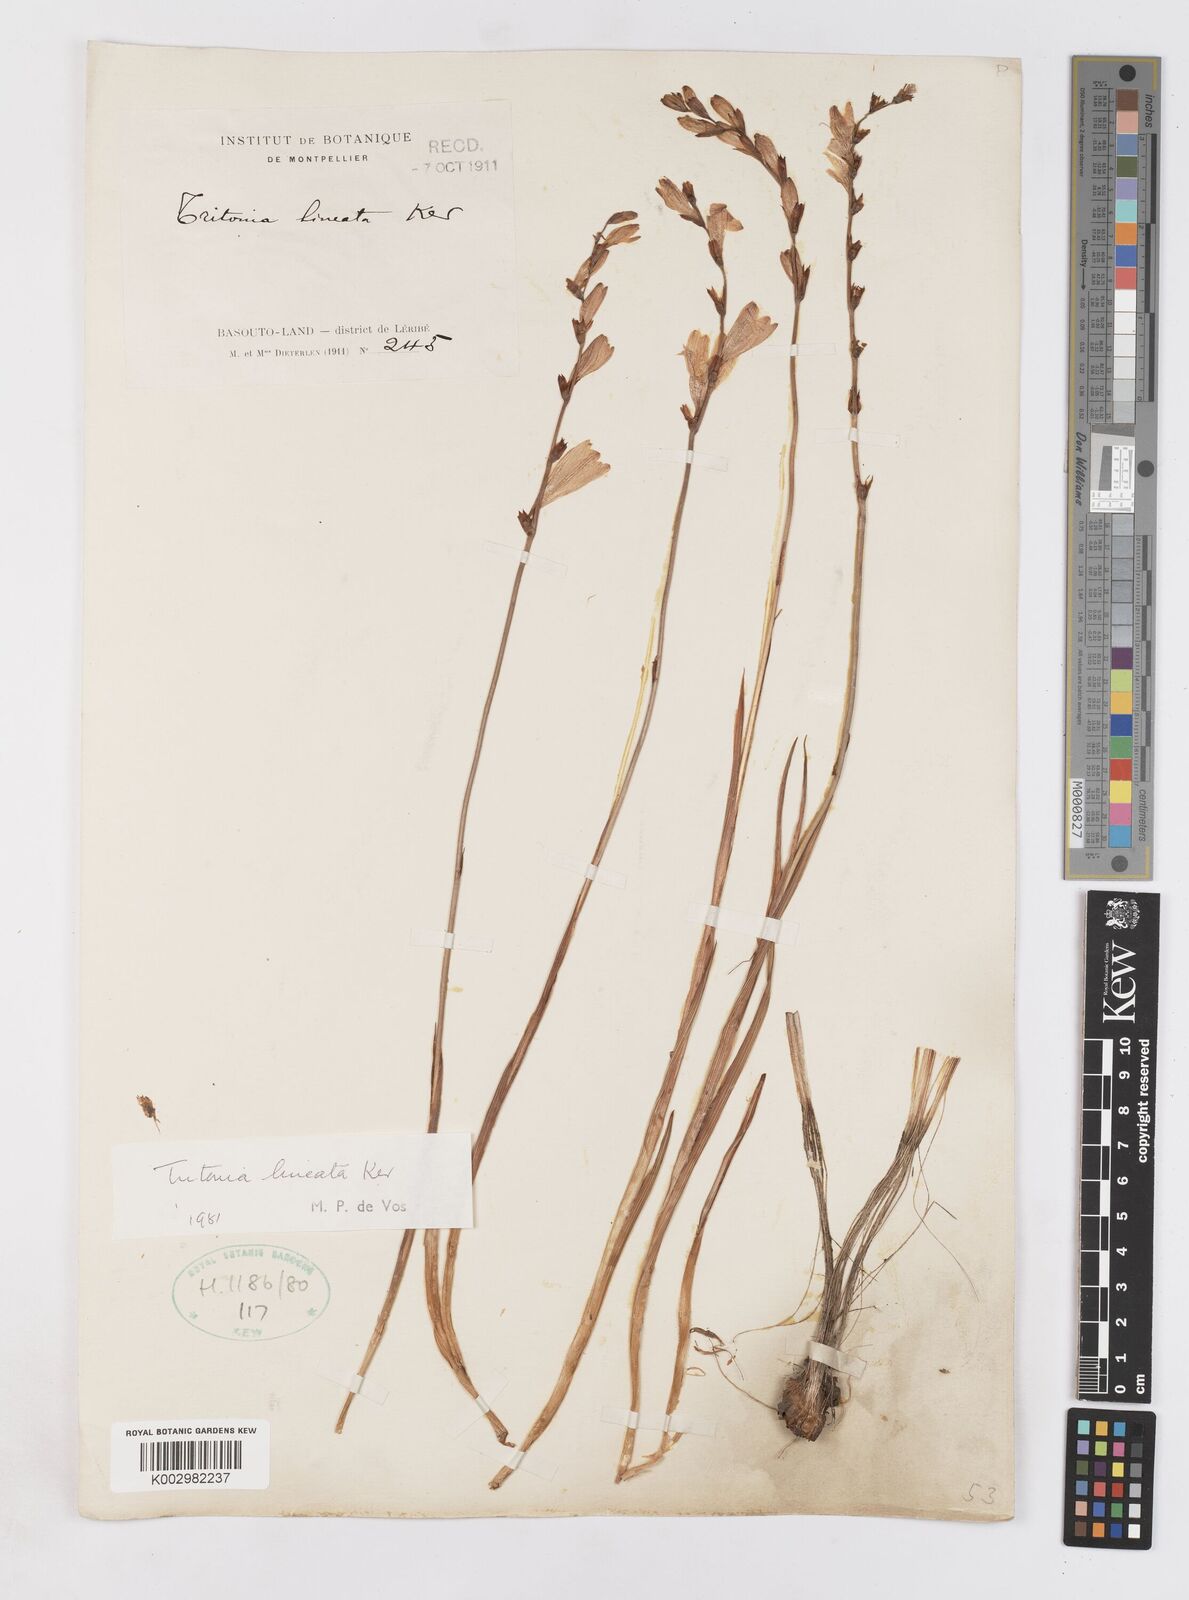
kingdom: Plantae
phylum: Tracheophyta
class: Liliopsida
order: Asparagales
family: Iridaceae
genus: Tritonia
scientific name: Tritonia gladiolaris
